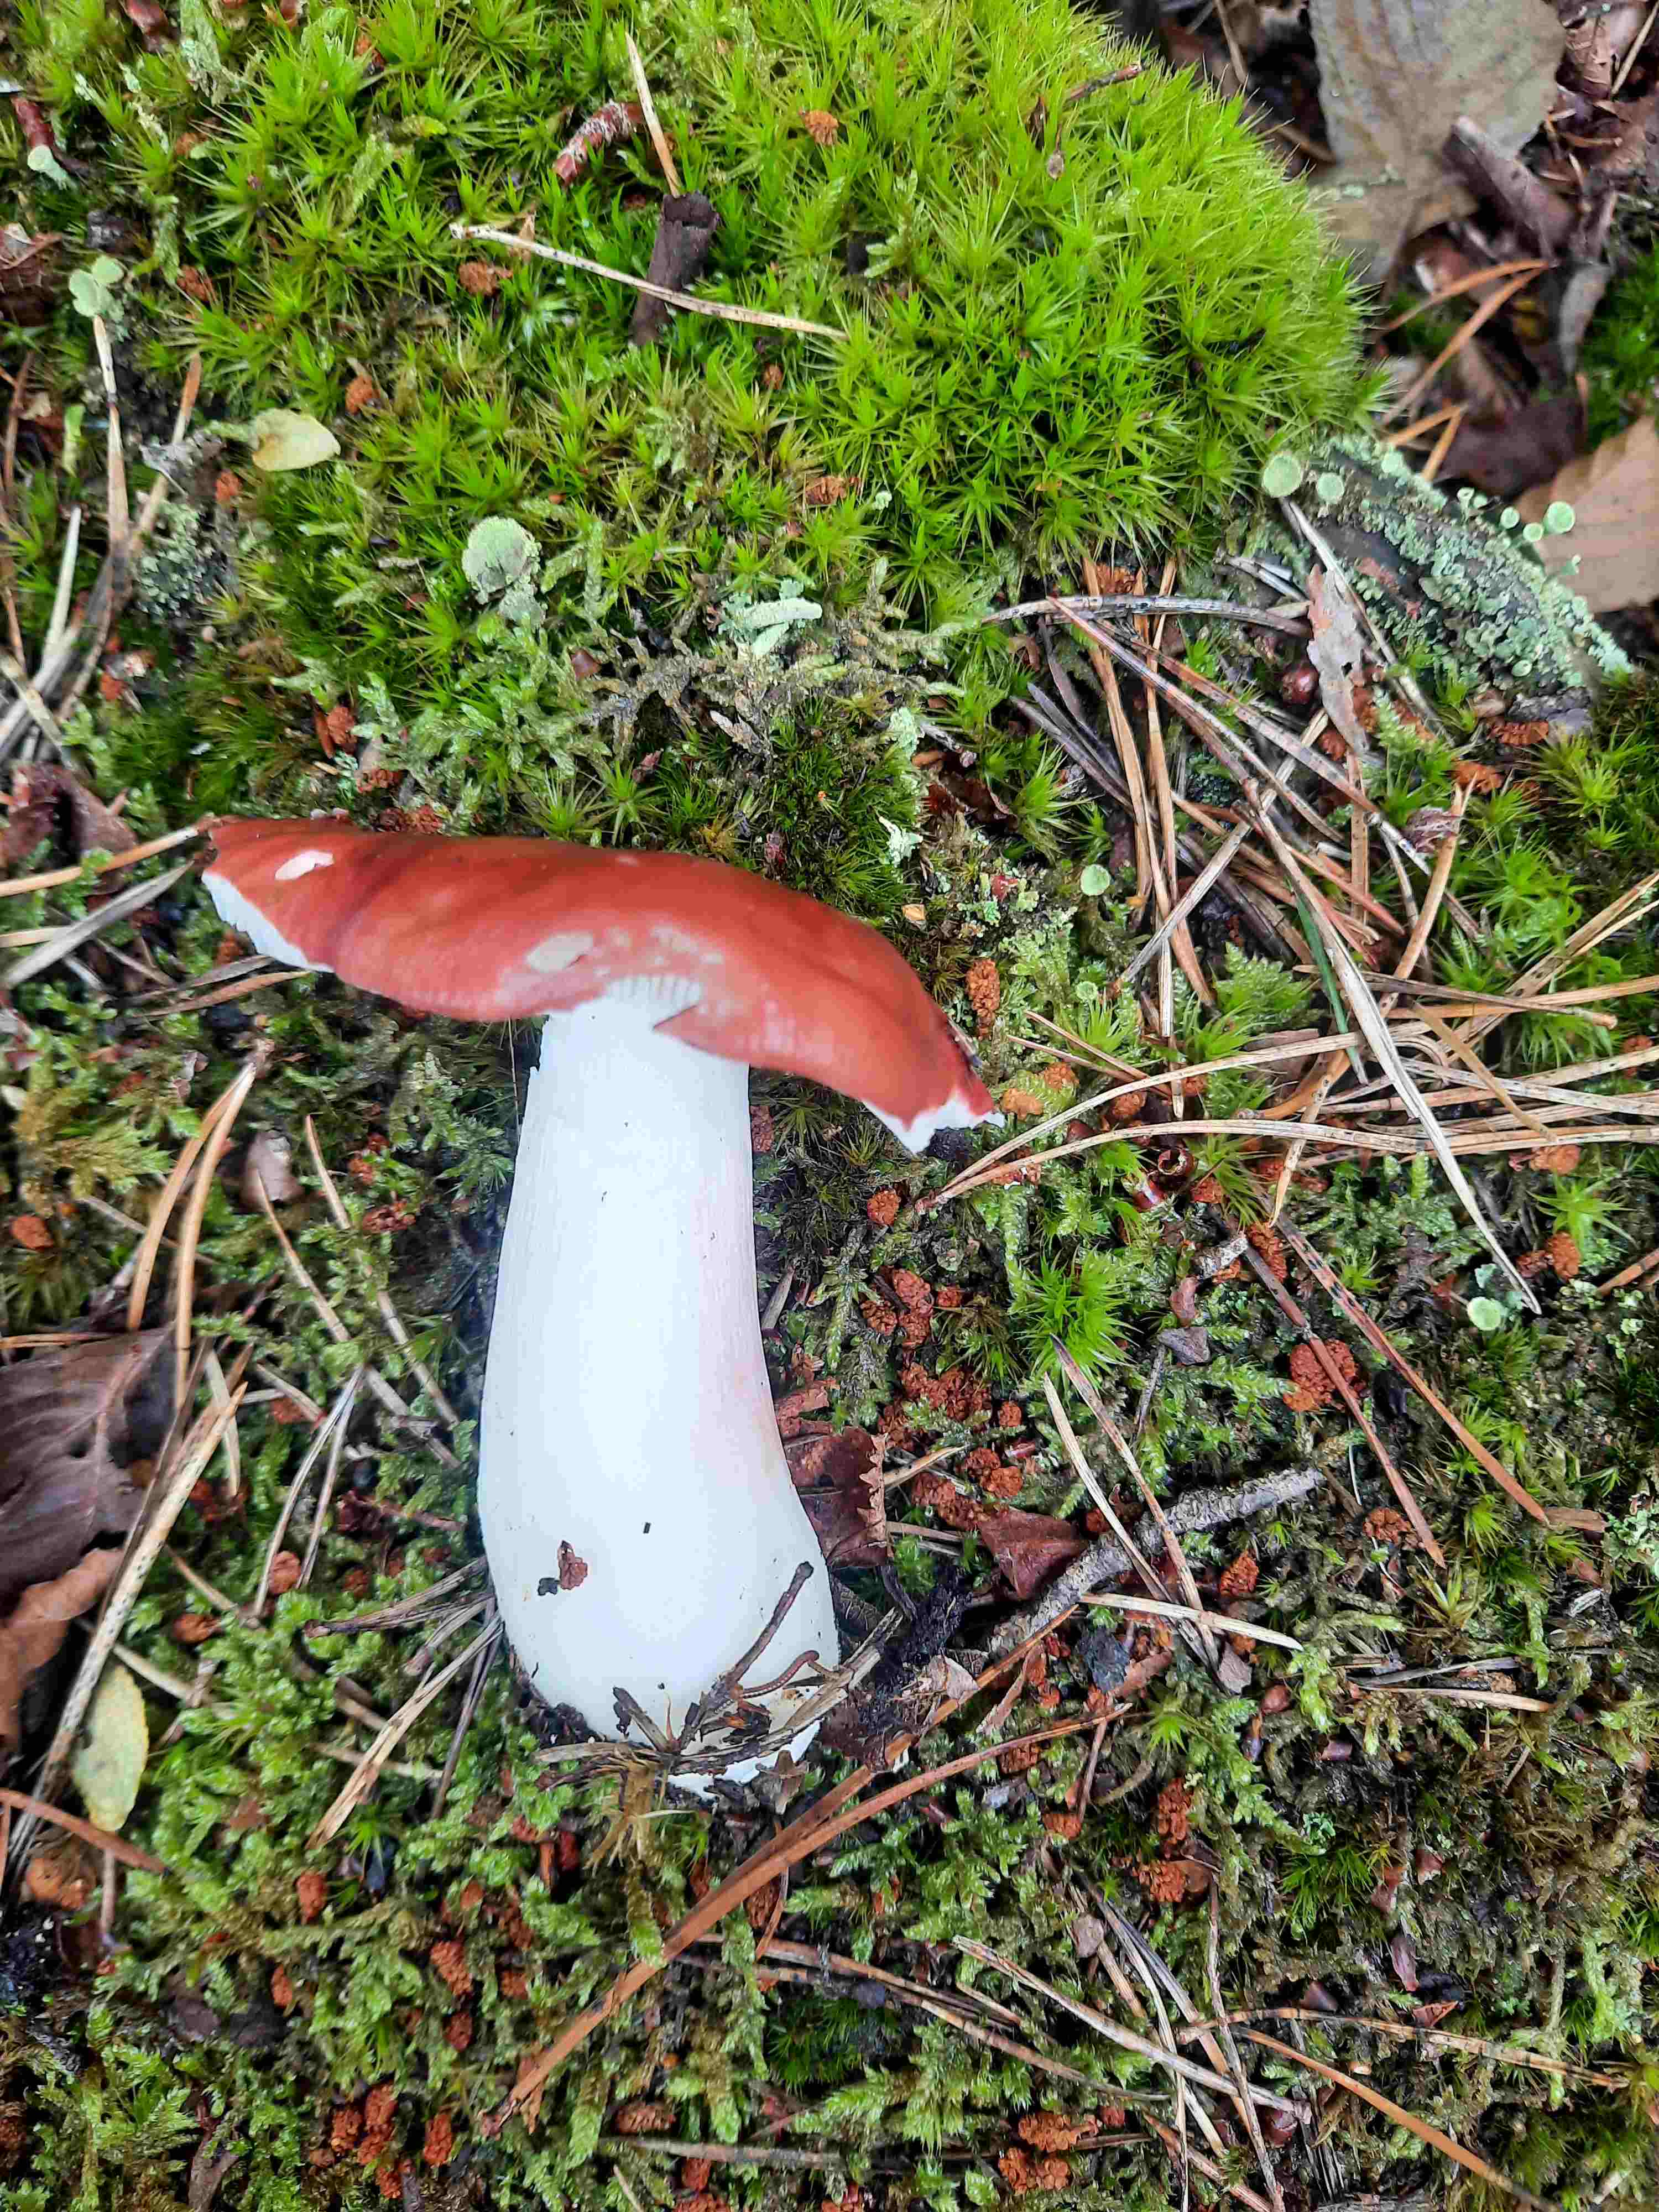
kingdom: Fungi
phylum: Basidiomycota
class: Agaricomycetes
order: Russulales
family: Russulaceae
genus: Russula
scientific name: Russula paludosa
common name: prægtig skørhat
